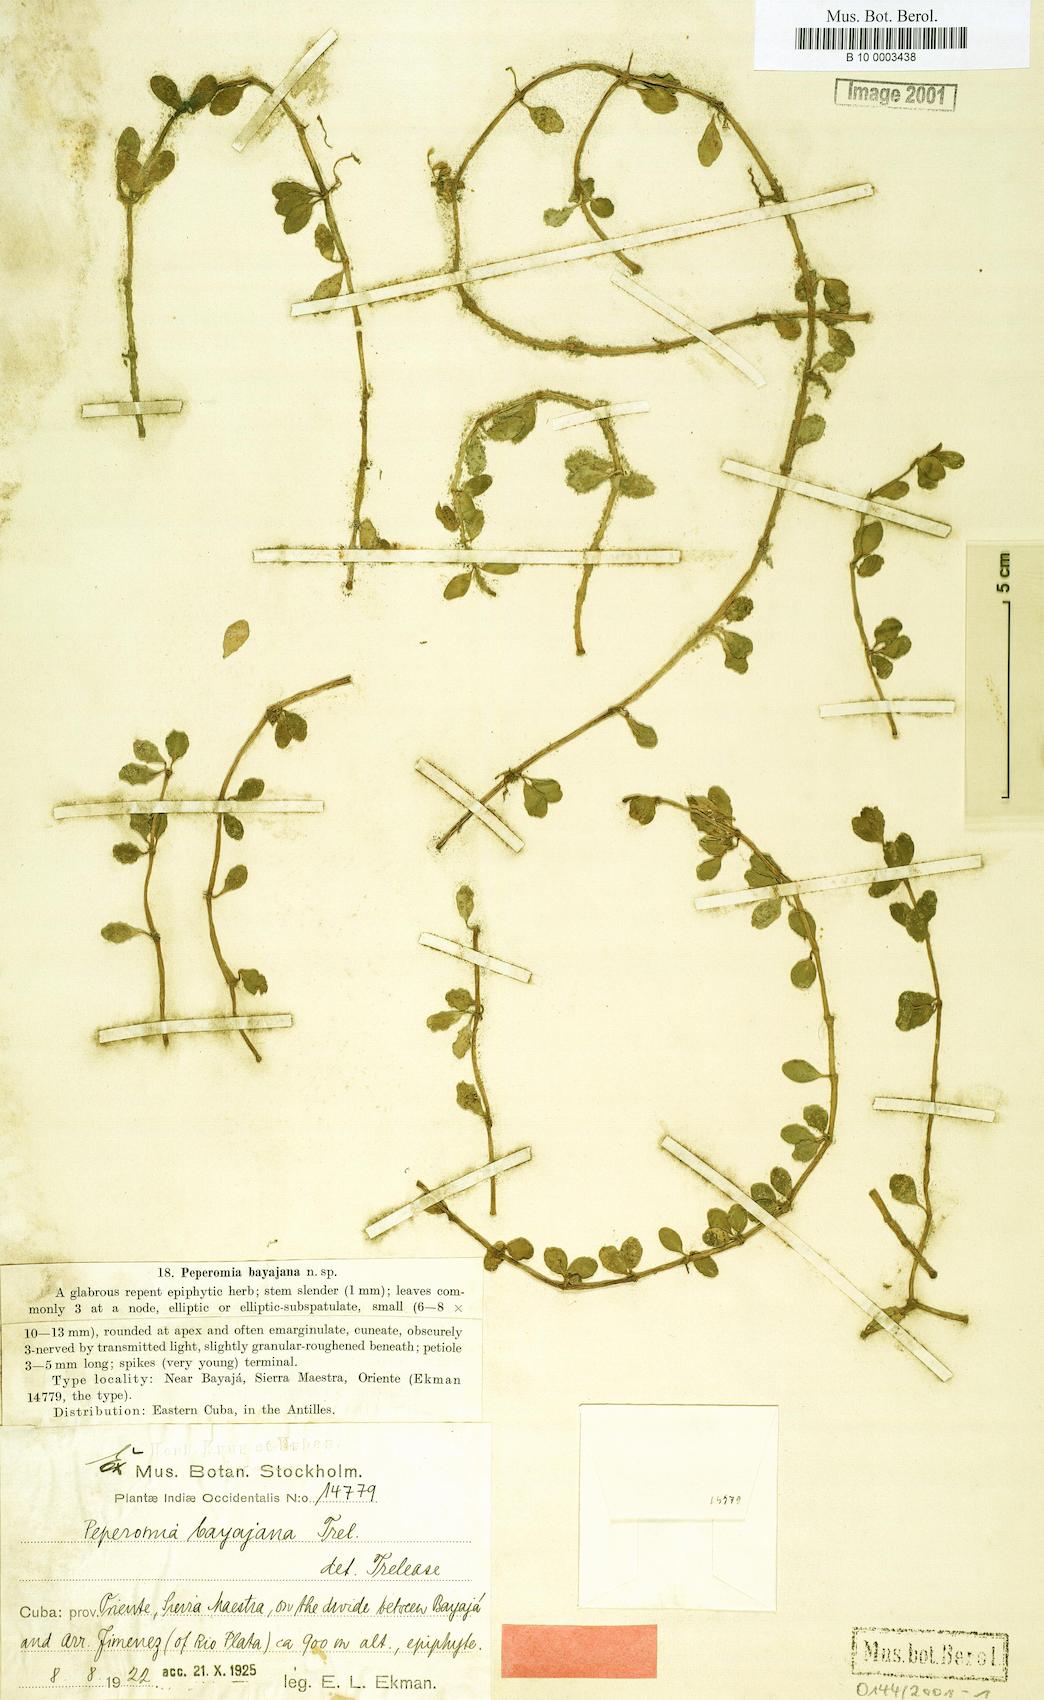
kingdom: Plantae
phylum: Tracheophyta
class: Magnoliopsida
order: Piperales
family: Piperaceae
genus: Peperomia
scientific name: Peperomia grisebachii
